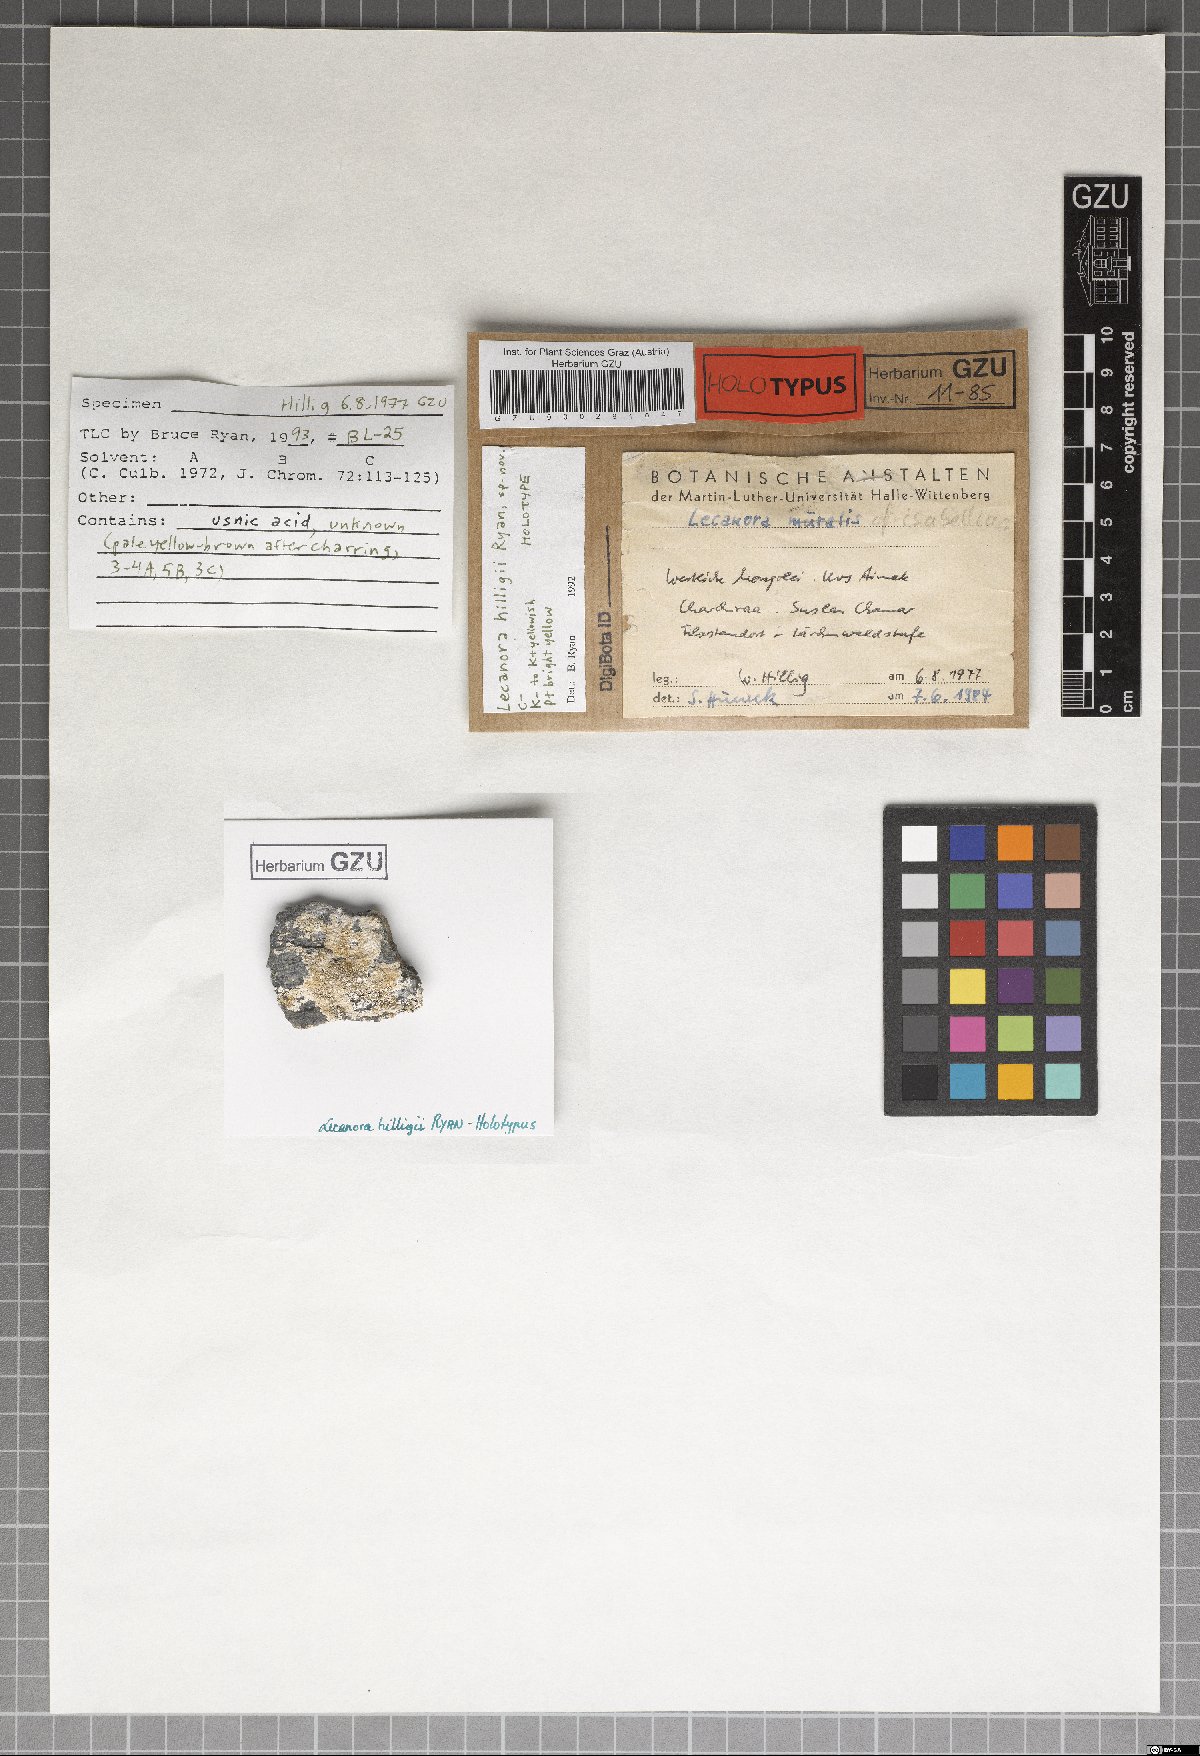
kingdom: Fungi
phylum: Ascomycota
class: Lecanoromycetes
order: Lecanorales
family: Lecanoraceae
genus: Lecanora
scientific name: Lecanora
